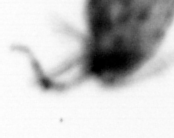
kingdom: Animalia
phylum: Arthropoda
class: Copepoda
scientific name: Copepoda
